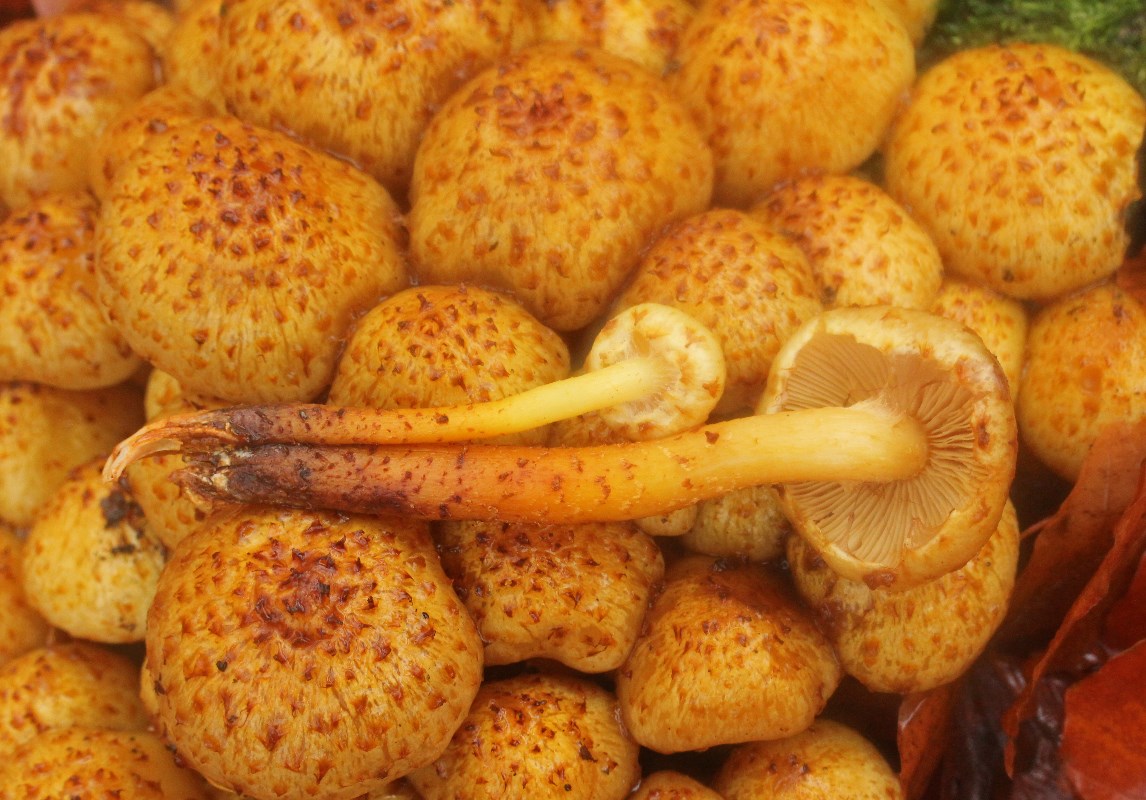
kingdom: Fungi
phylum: Basidiomycota
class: Agaricomycetes
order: Agaricales
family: Strophariaceae
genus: Pholiota
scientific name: Pholiota squarrosa
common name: krumskællet skælhat
